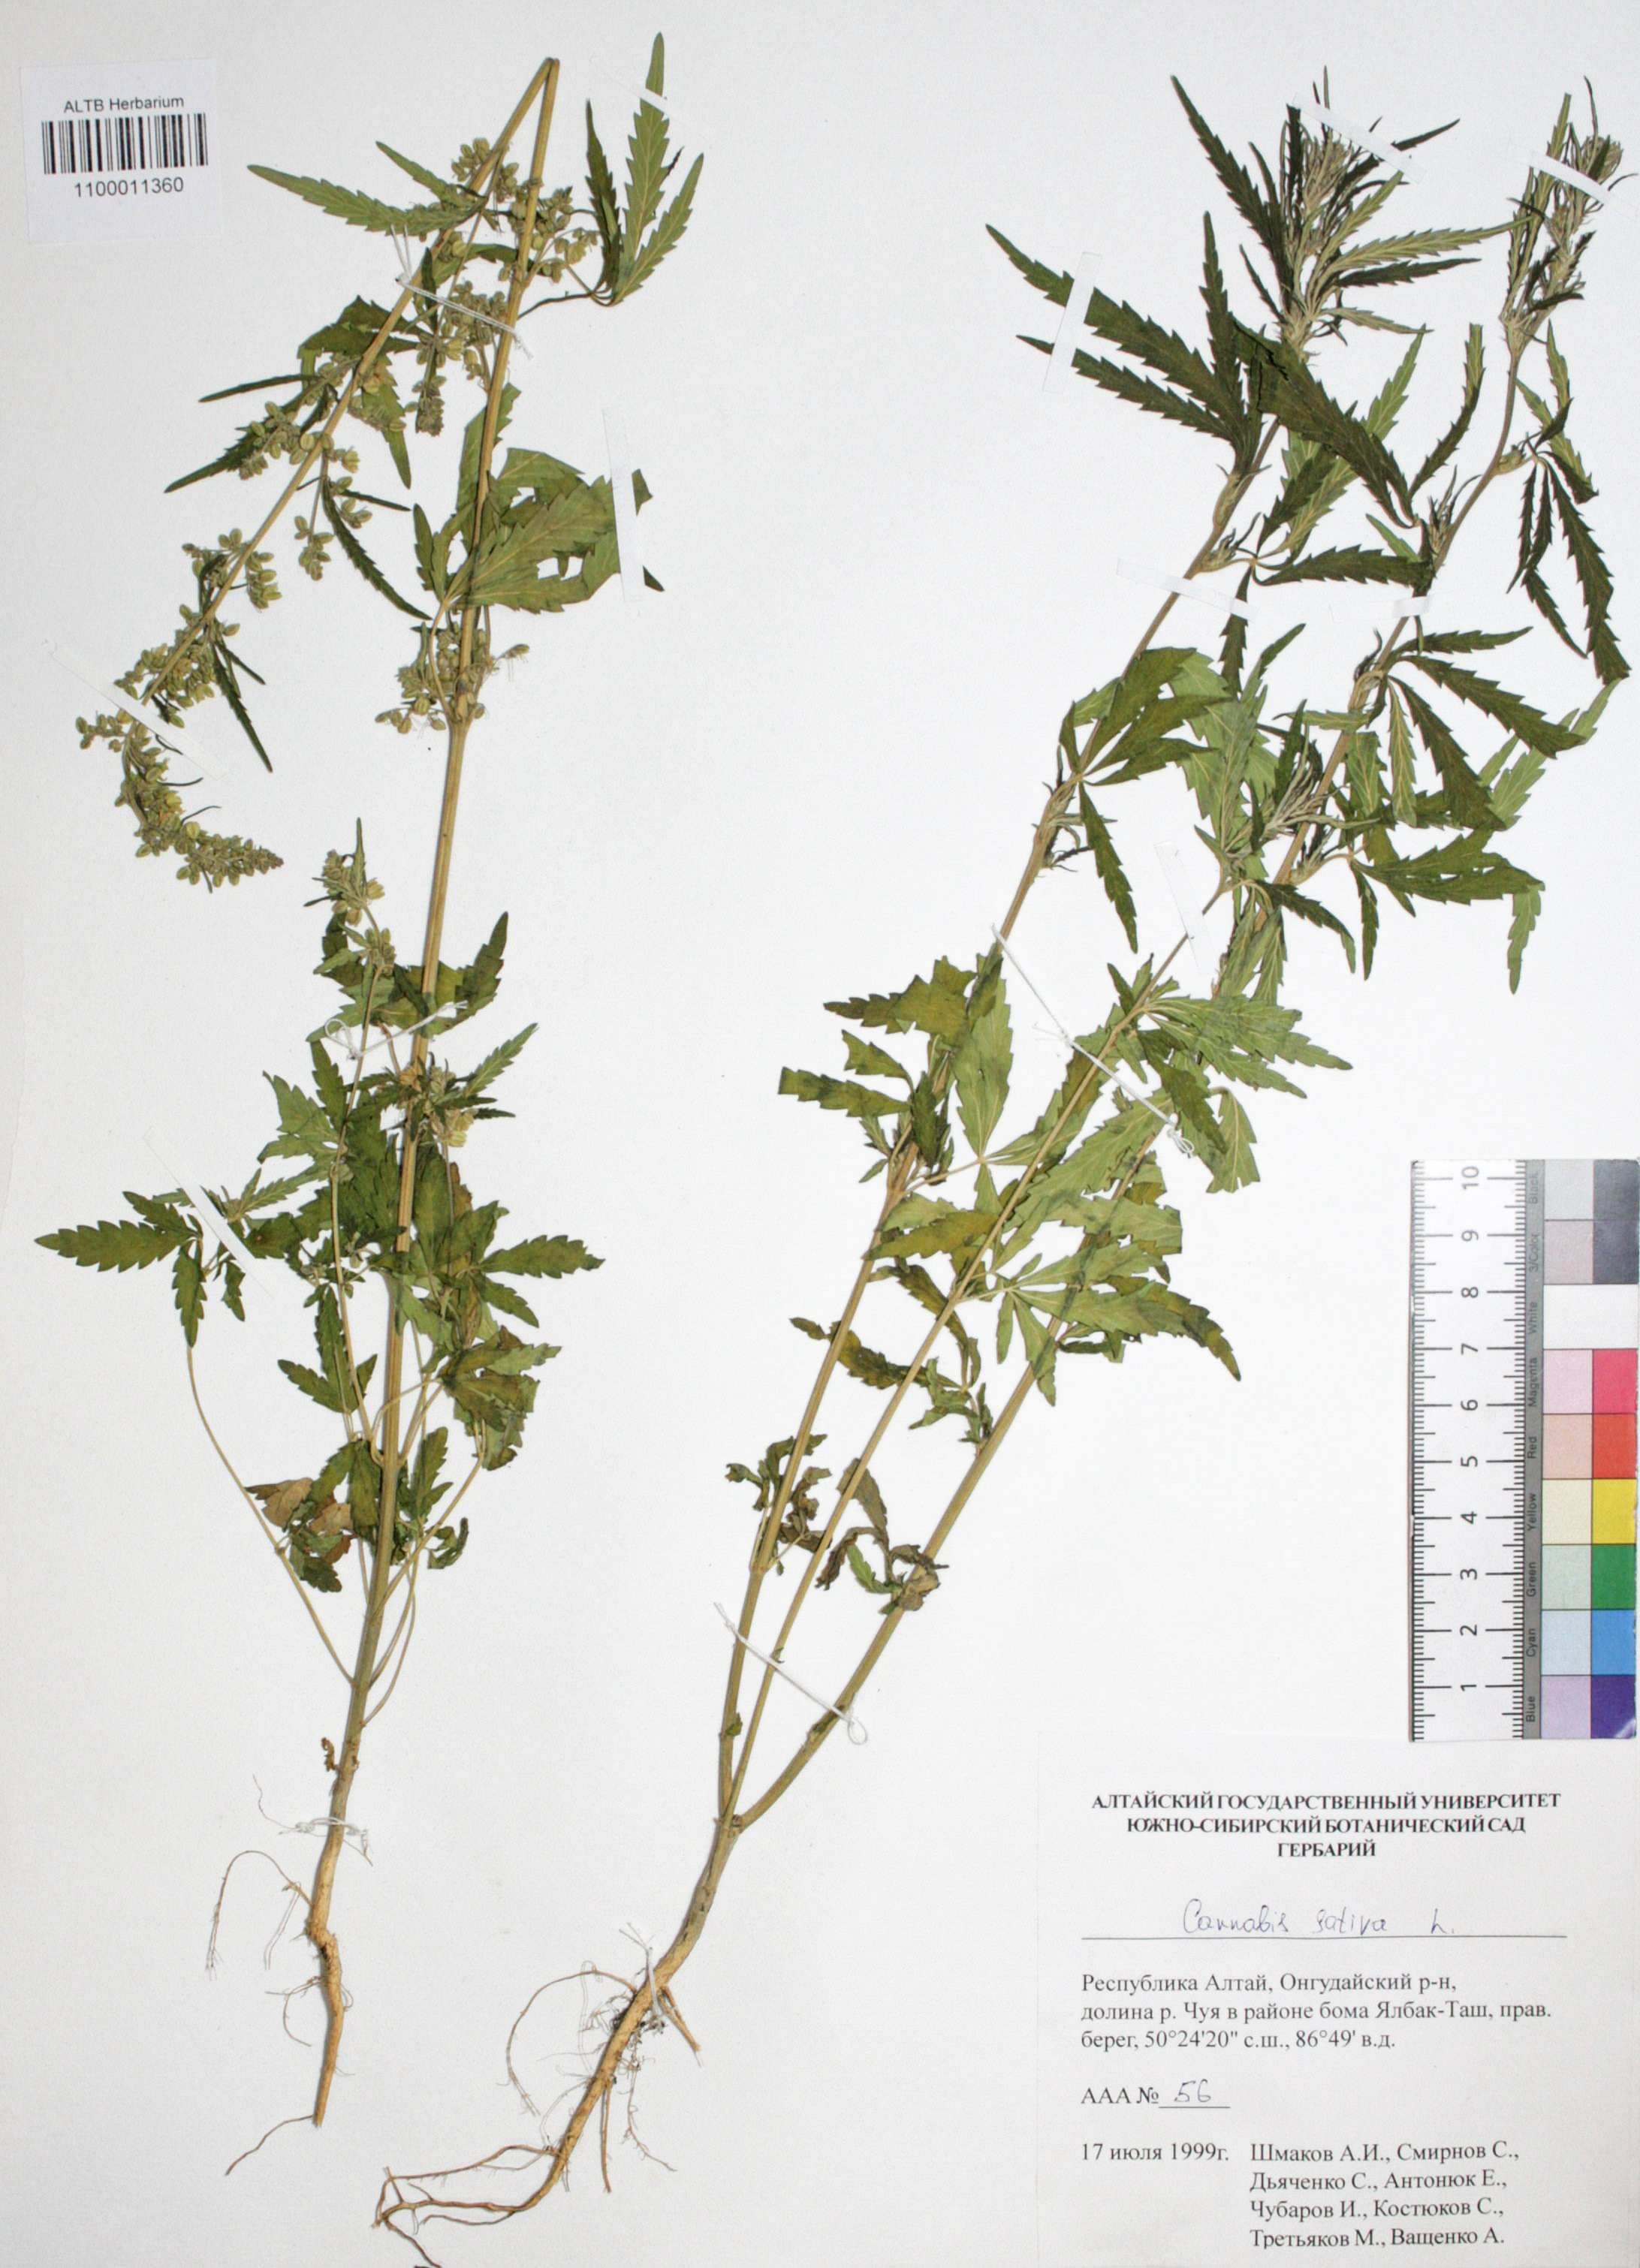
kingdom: Plantae
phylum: Tracheophyta
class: Magnoliopsida
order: Rosales
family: Cannabaceae
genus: Cannabis
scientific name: Cannabis sativa
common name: Hemp
